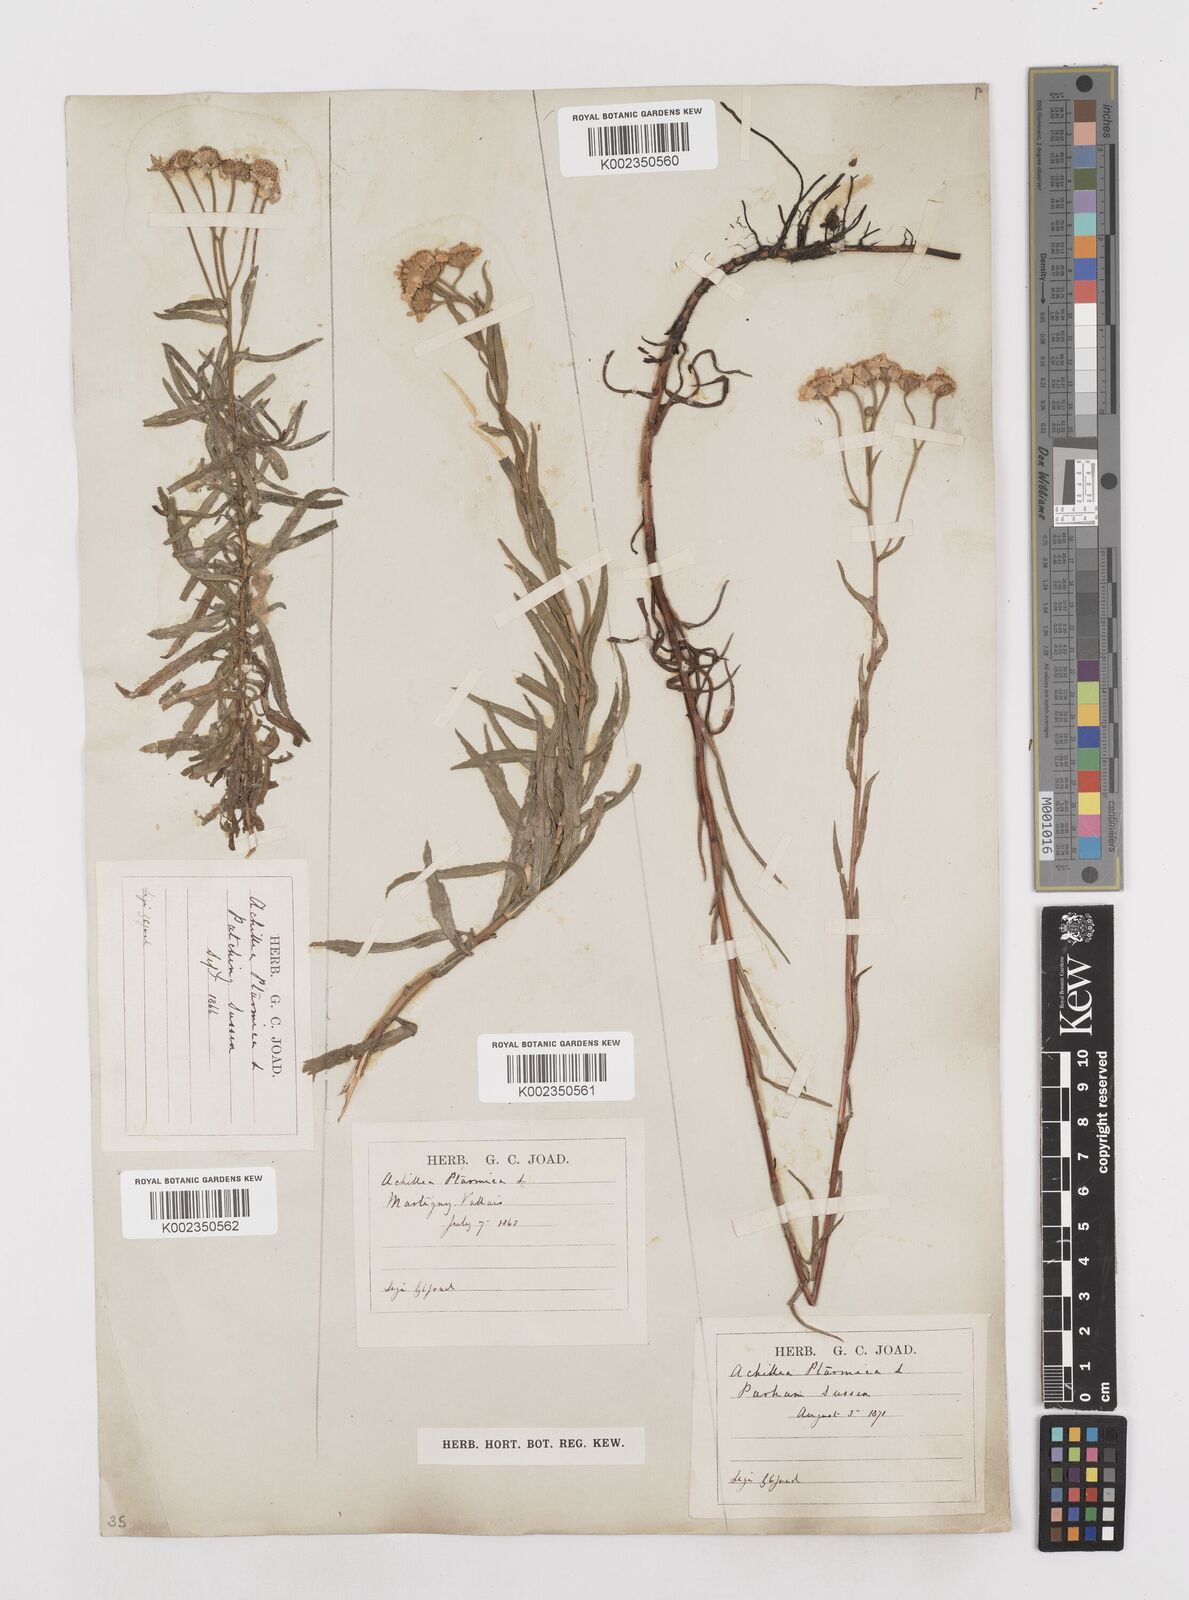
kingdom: Plantae
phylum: Tracheophyta
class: Magnoliopsida
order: Asterales
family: Asteraceae
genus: Achillea
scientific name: Achillea ptarmica
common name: Sneezeweed
